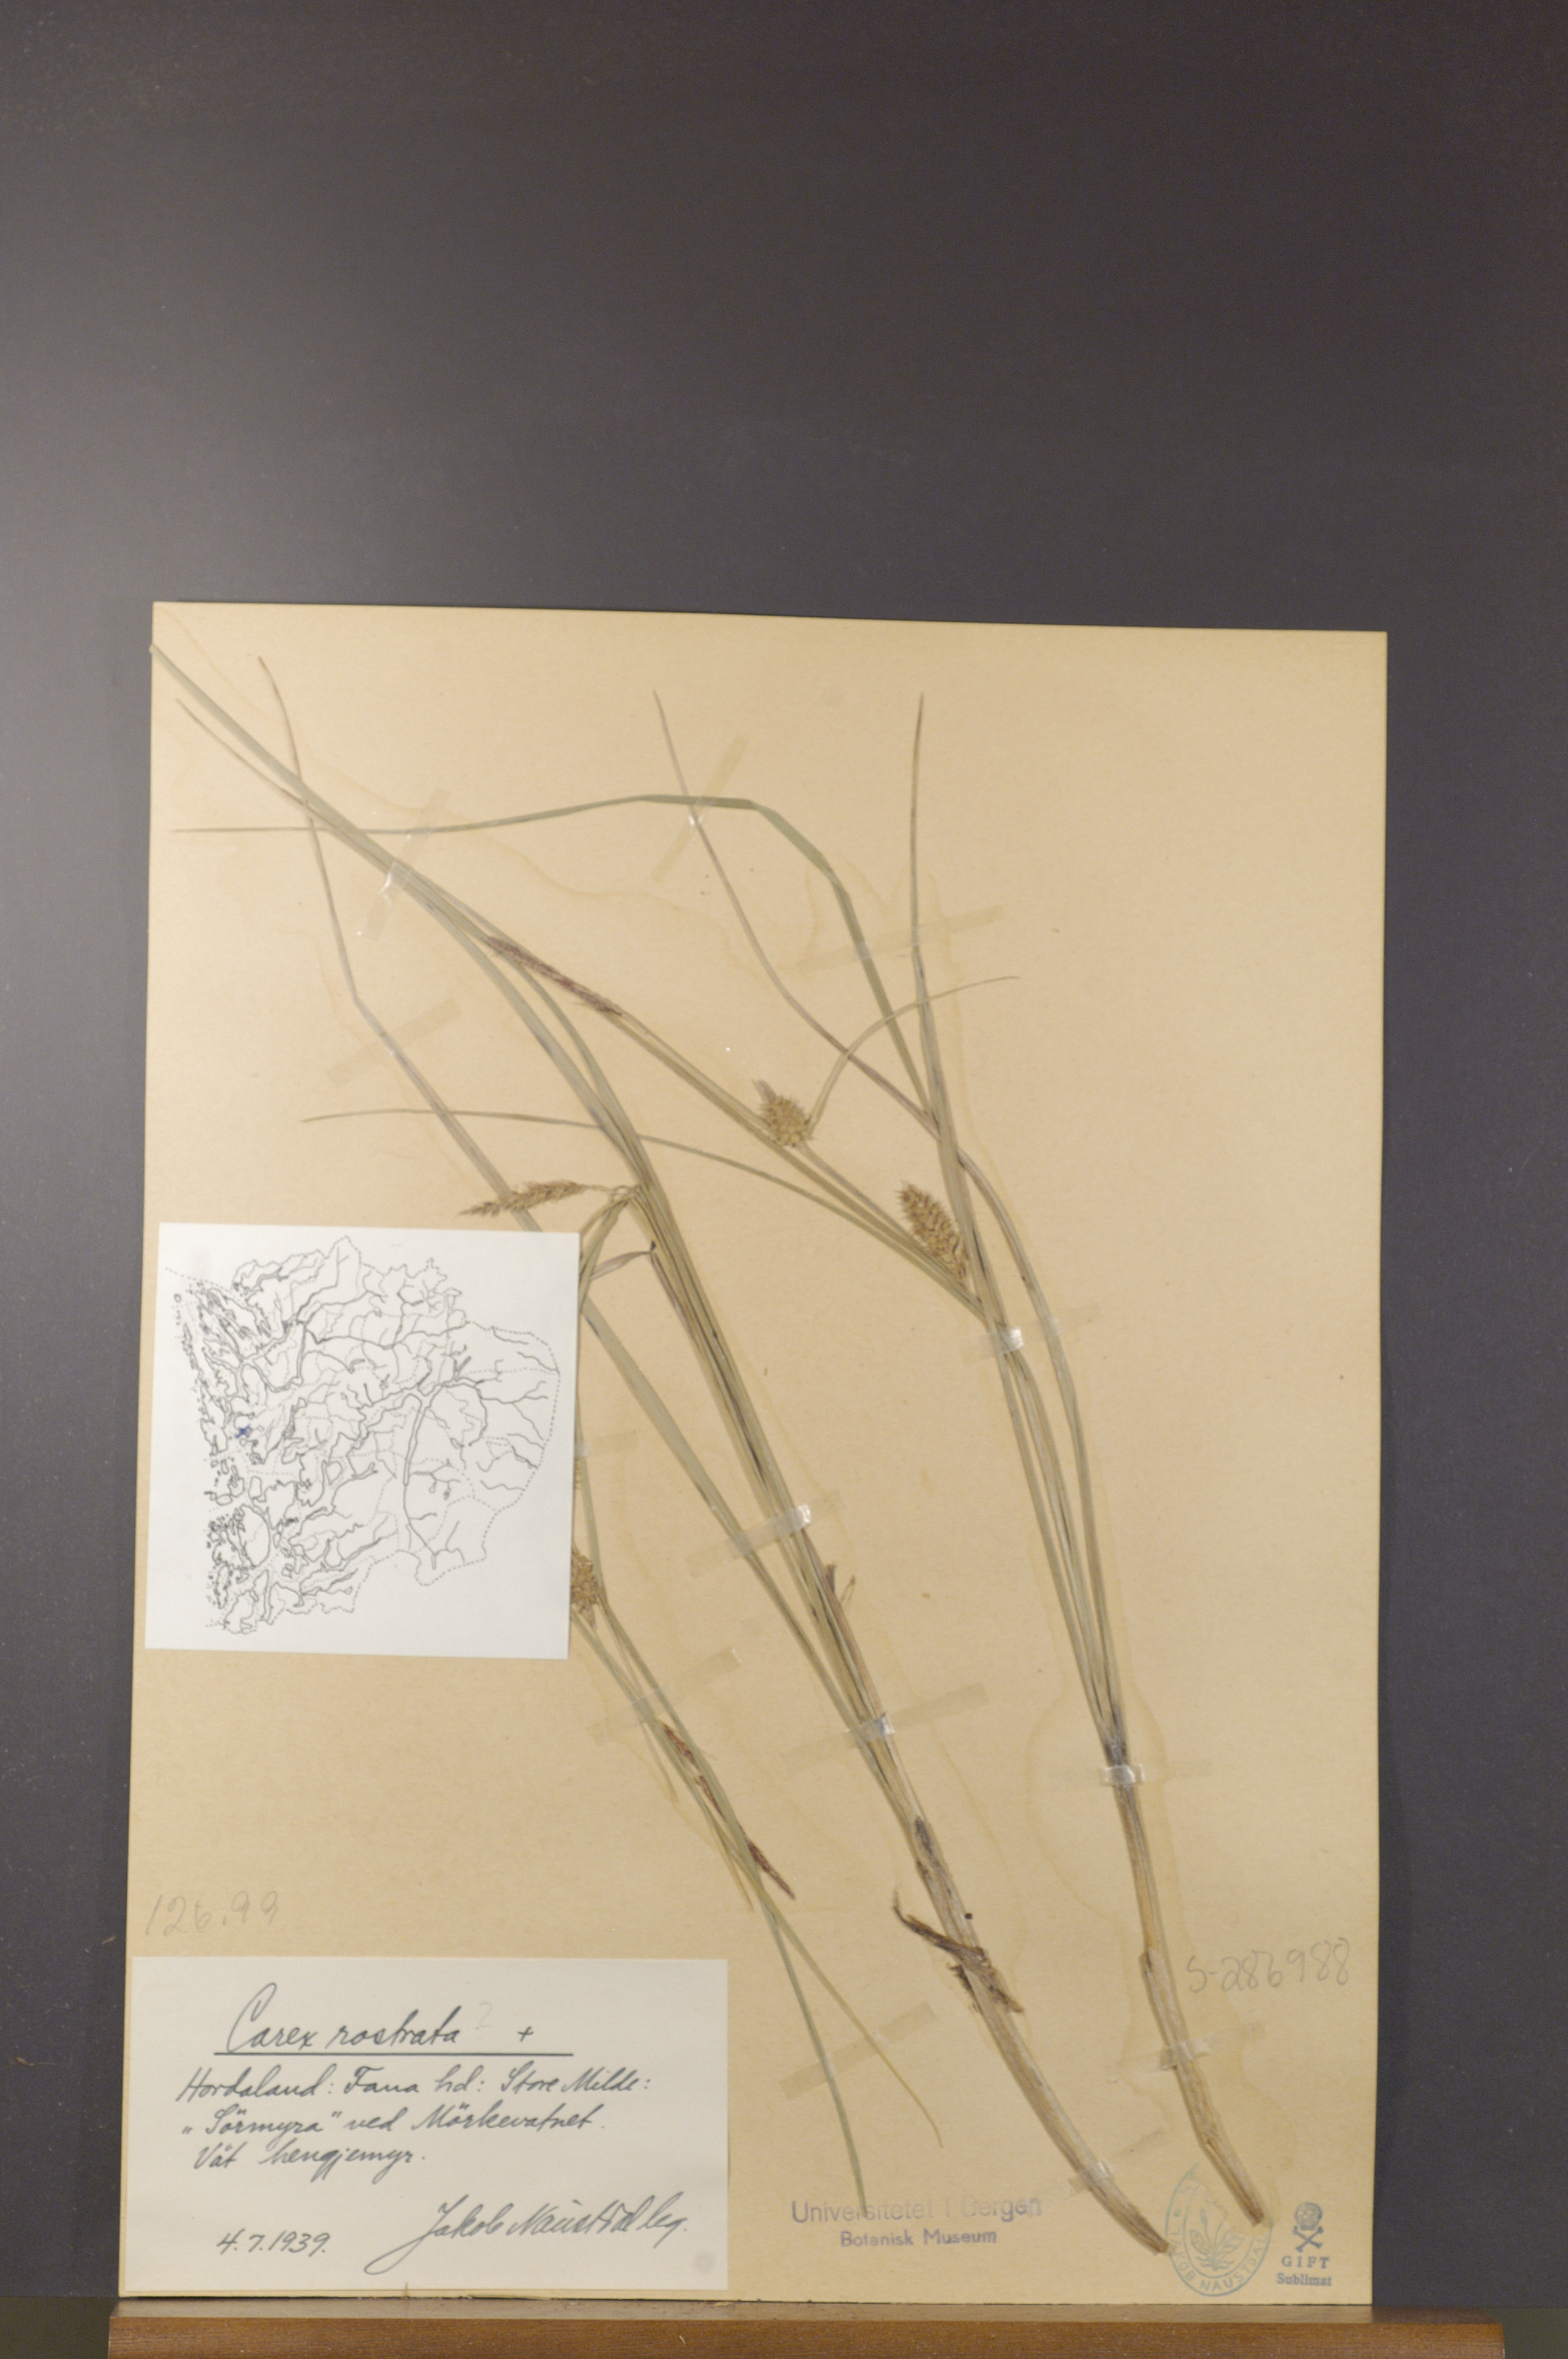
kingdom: Plantae
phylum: Tracheophyta
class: Liliopsida
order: Poales
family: Cyperaceae
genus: Carex
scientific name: Carex rostrata
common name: Bottle sedge
